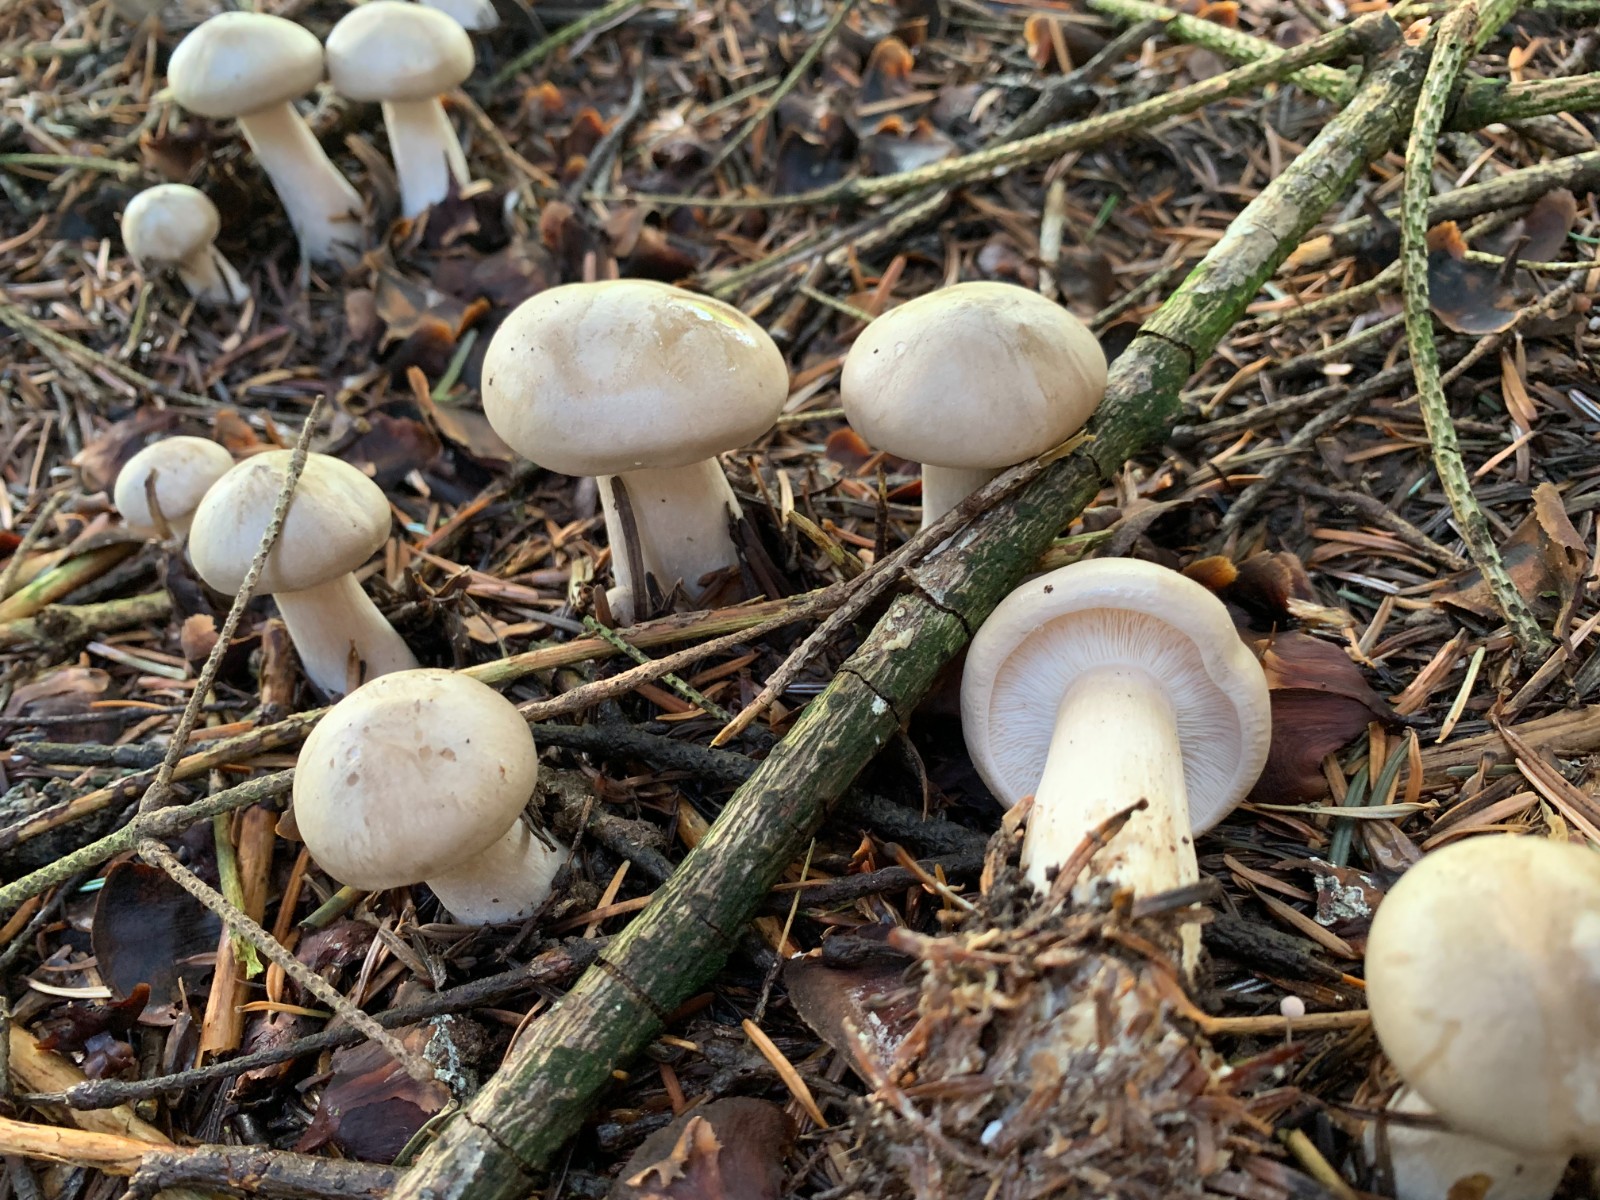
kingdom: Fungi
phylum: Basidiomycota
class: Agaricomycetes
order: Agaricales
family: Tricholomataceae
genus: Clitocybe
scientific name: Clitocybe nebularis
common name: tåge-tragthat
